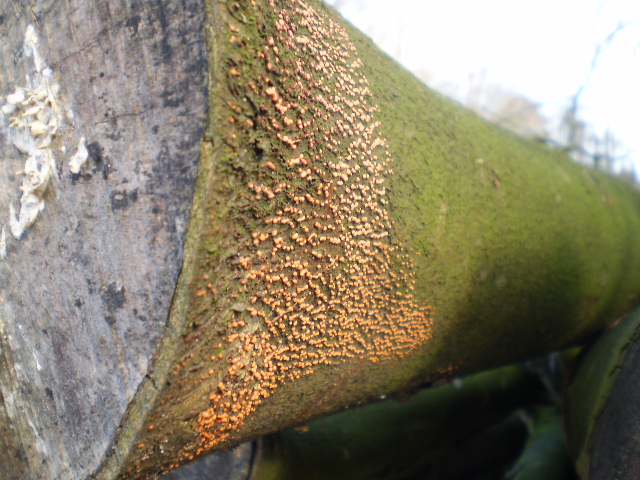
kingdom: Fungi
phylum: Ascomycota
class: Sordariomycetes
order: Hypocreales
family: Nectriaceae
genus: Nectria
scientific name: Nectria cinnabarina
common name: almindelig cinnobersvamp
